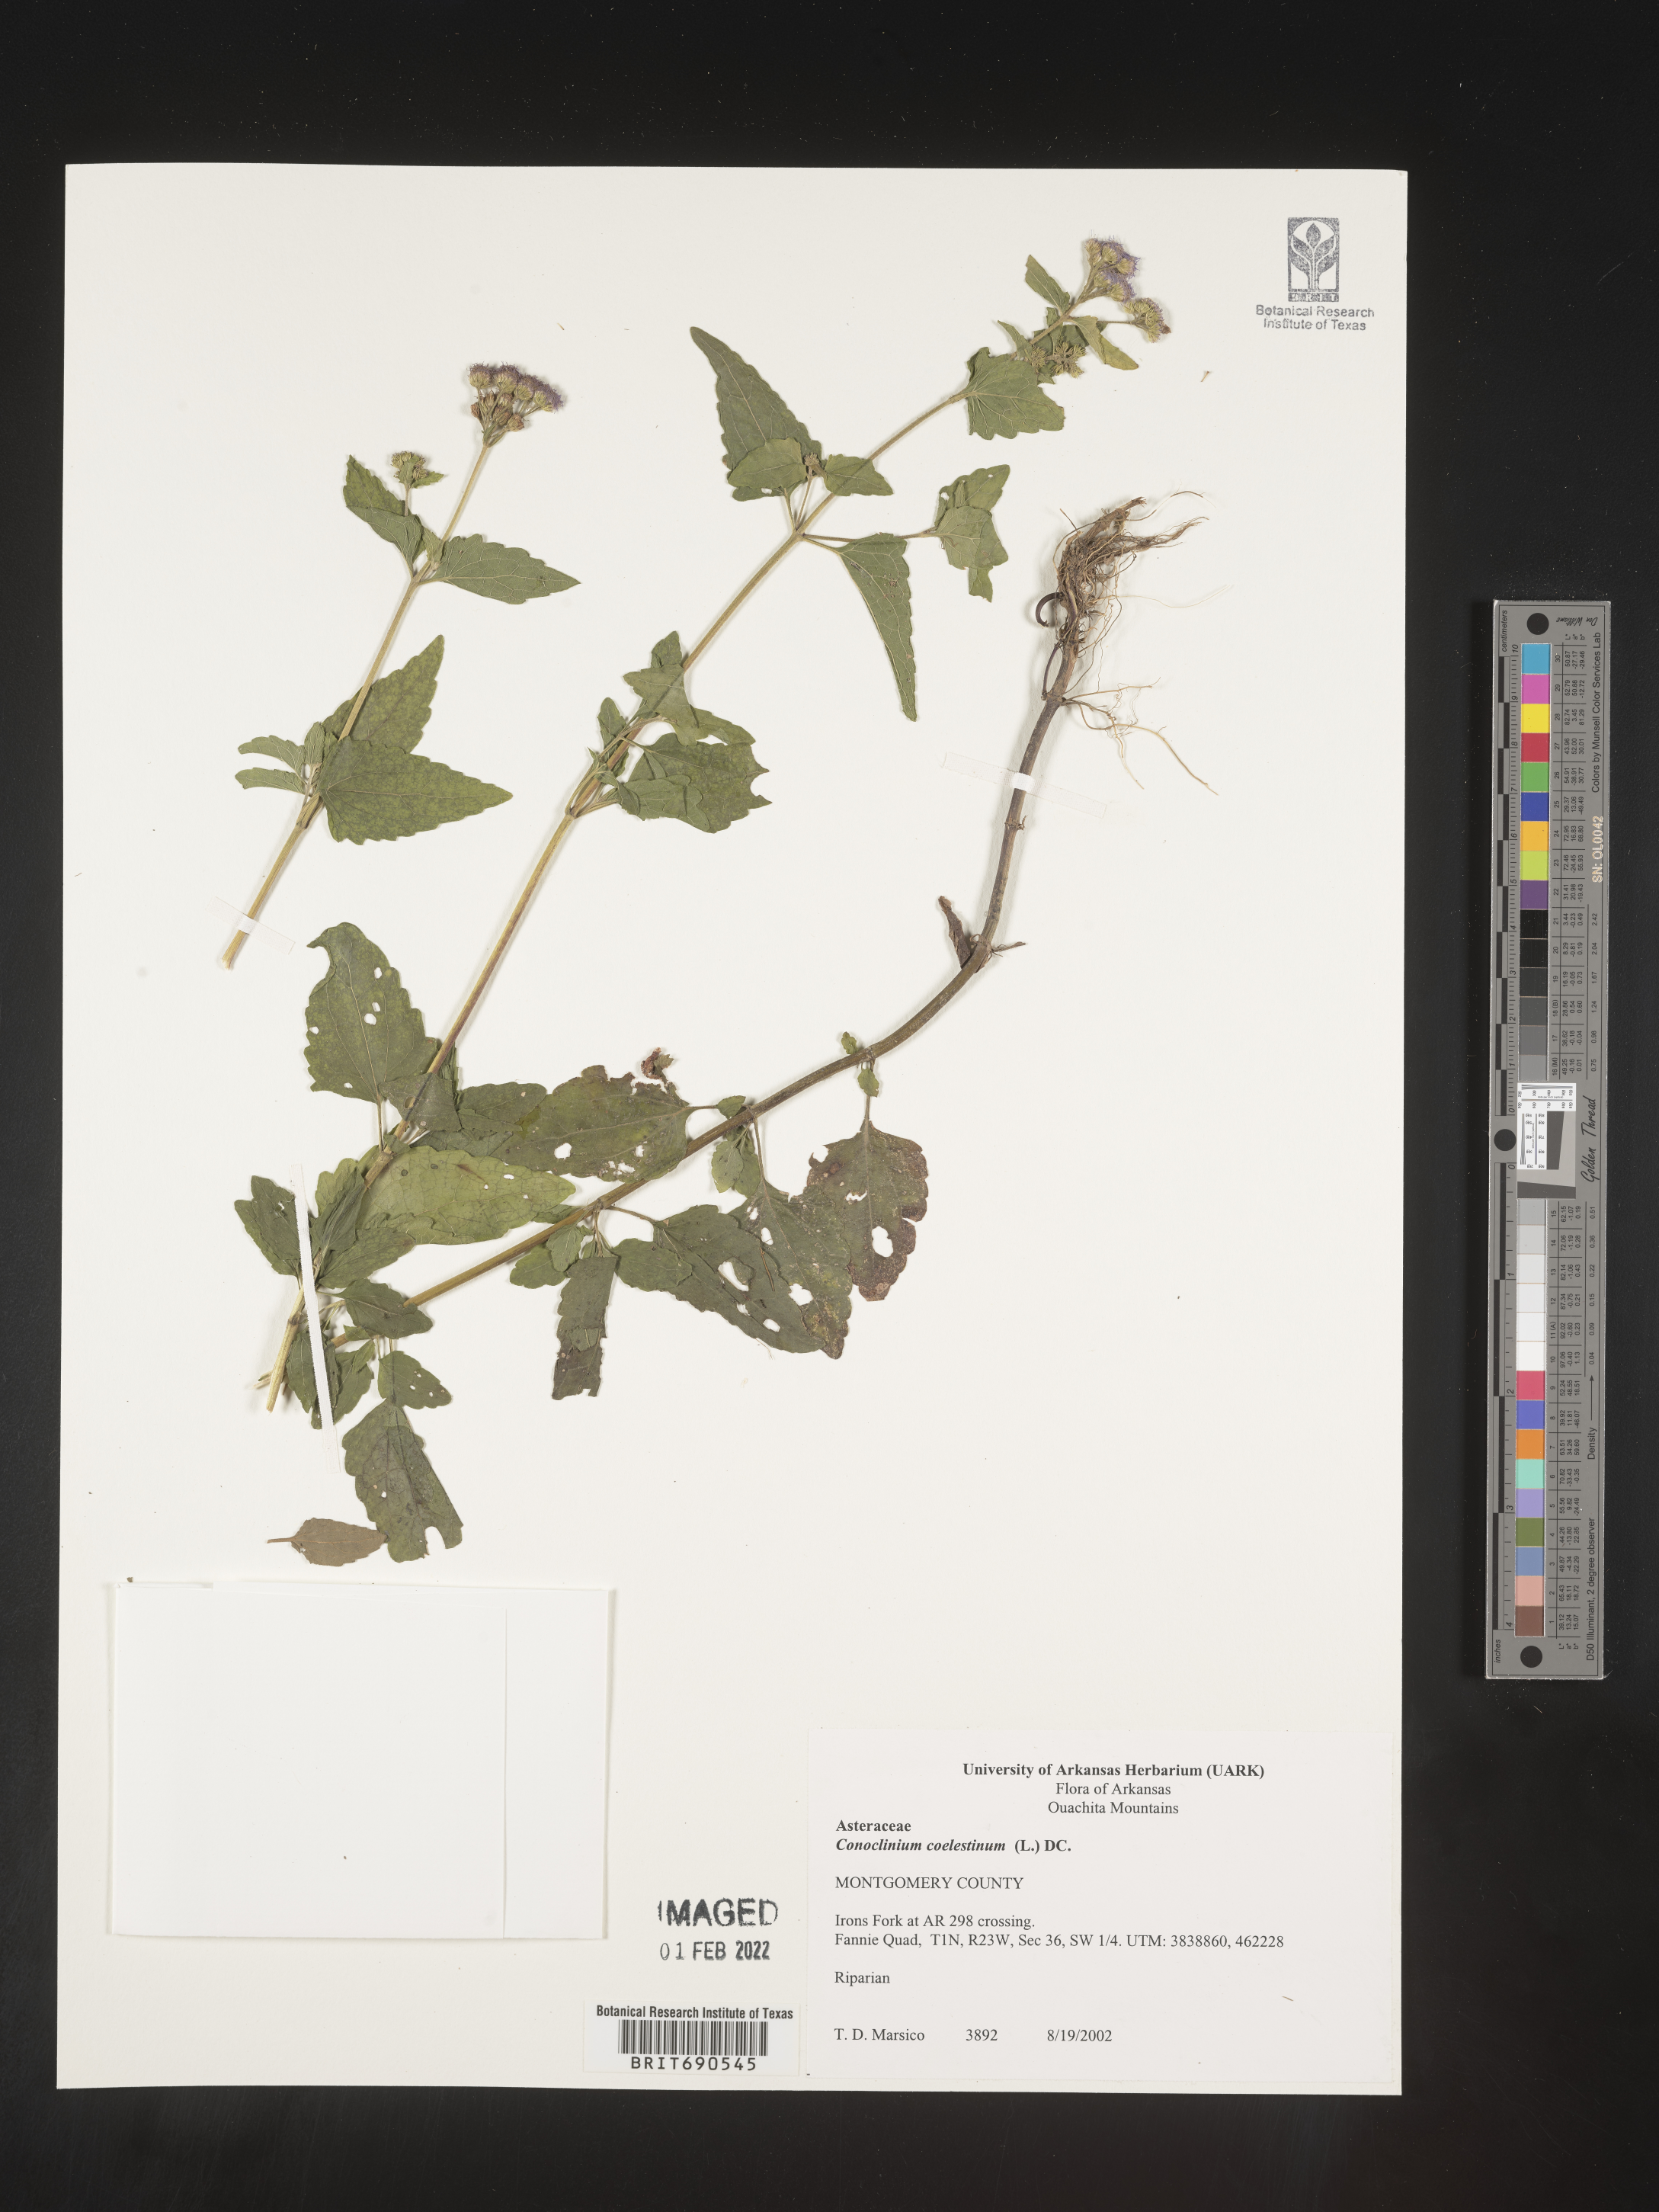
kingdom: Plantae
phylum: Tracheophyta
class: Magnoliopsida
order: Asterales
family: Asteraceae
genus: Conoclinium
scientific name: Conoclinium coelestinum
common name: Blue mistflower
